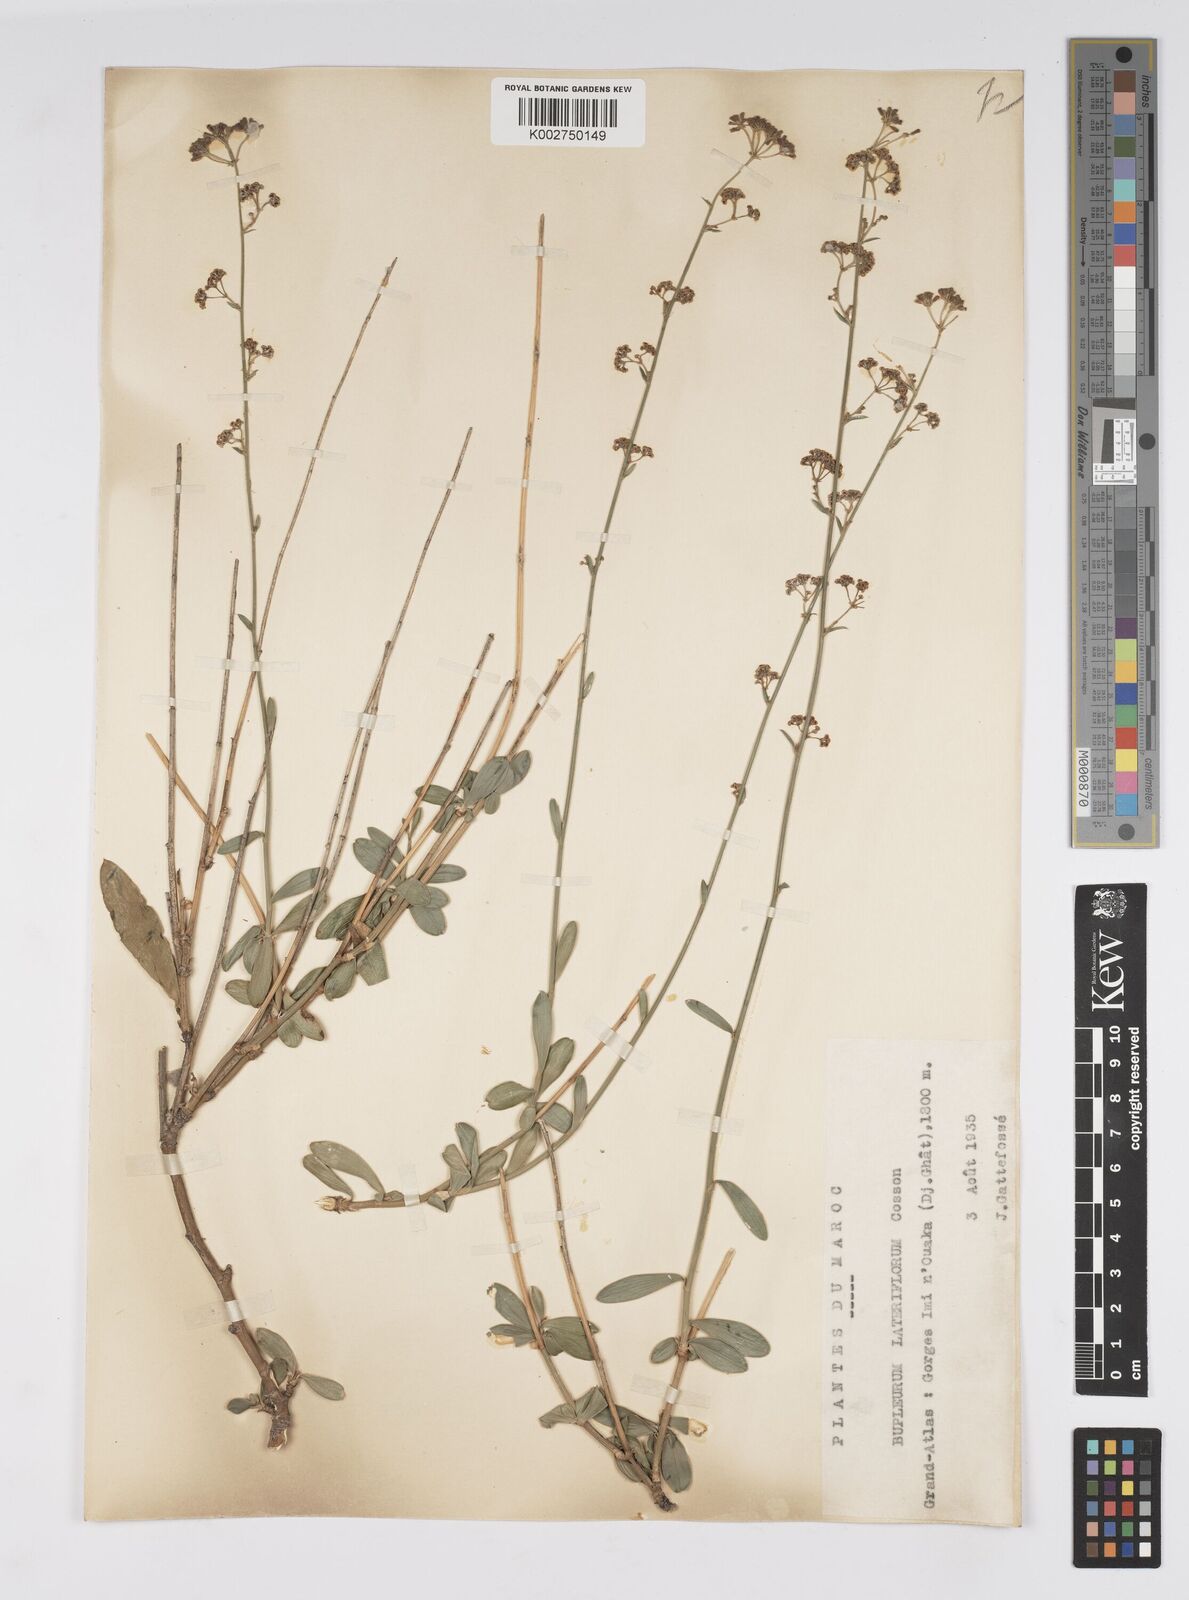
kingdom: Plantae
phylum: Tracheophyta
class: Magnoliopsida
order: Apiales
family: Apiaceae
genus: Bupleurum
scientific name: Bupleurum lateriflorum
